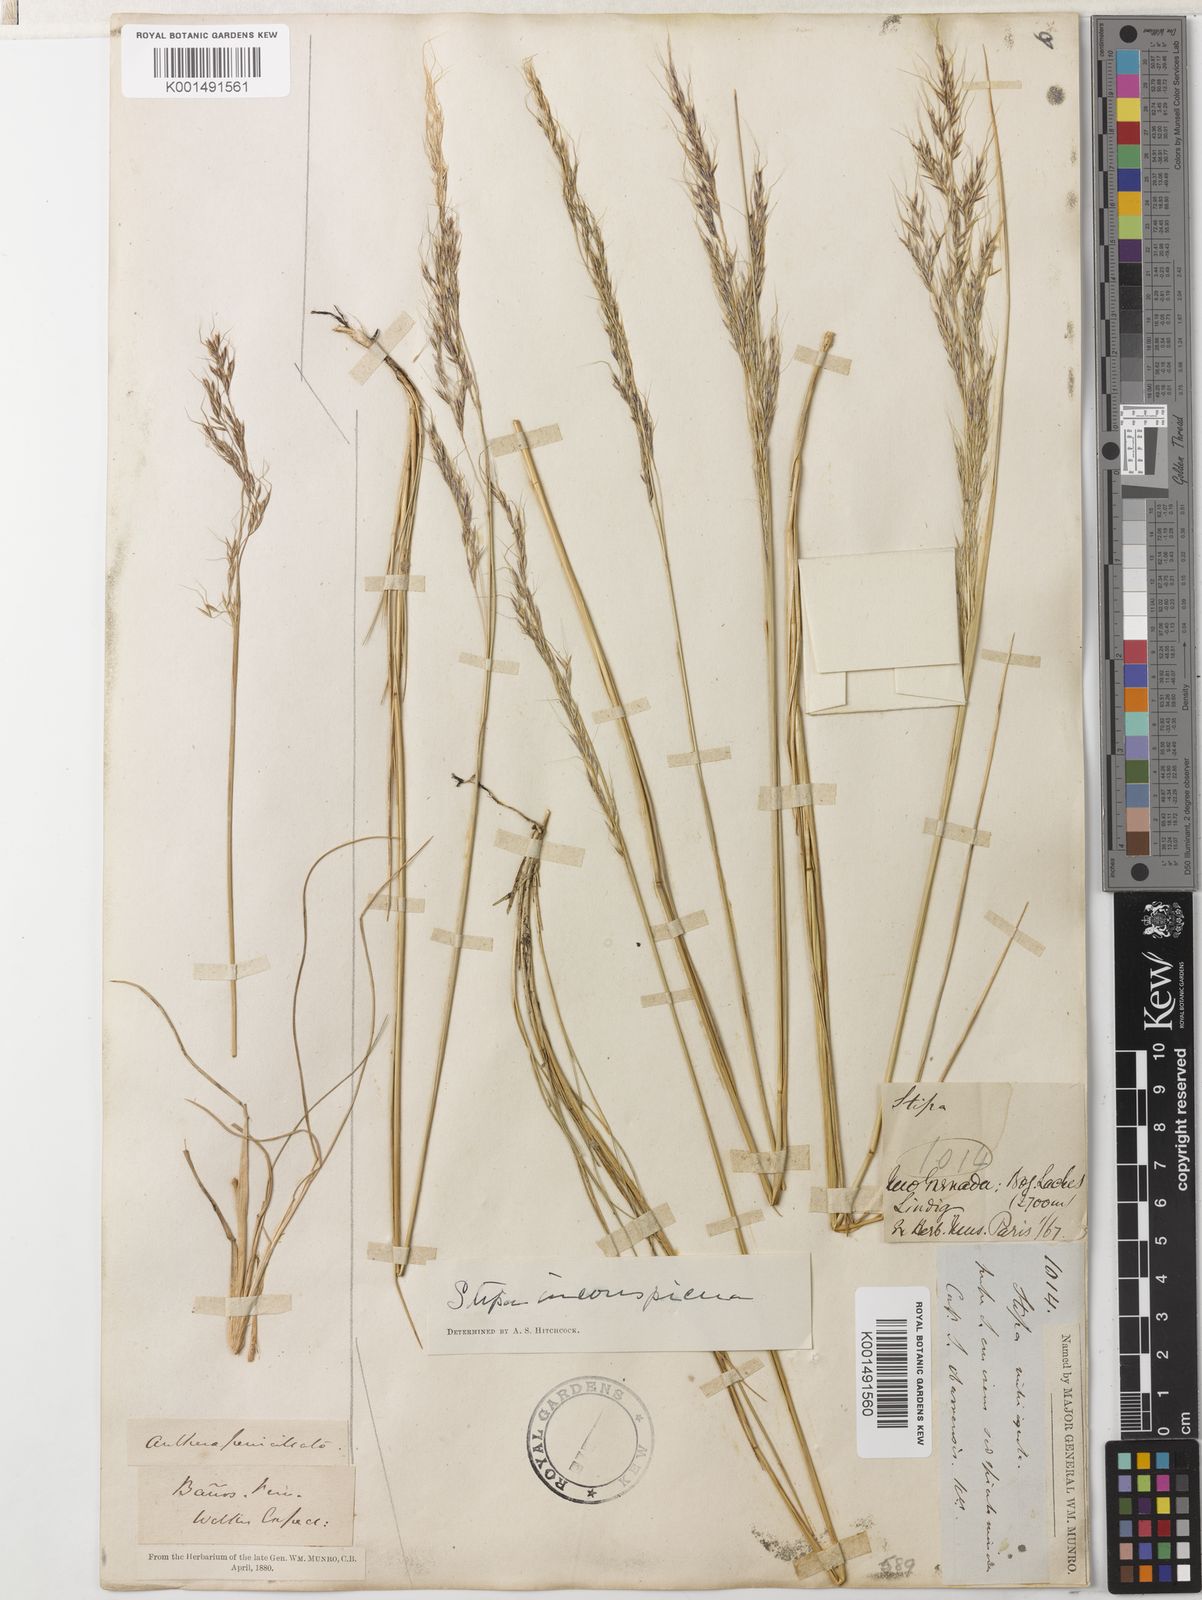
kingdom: Plantae
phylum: Tracheophyta
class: Liliopsida
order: Poales
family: Poaceae
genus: Nassella
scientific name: Nassella inconspicua
